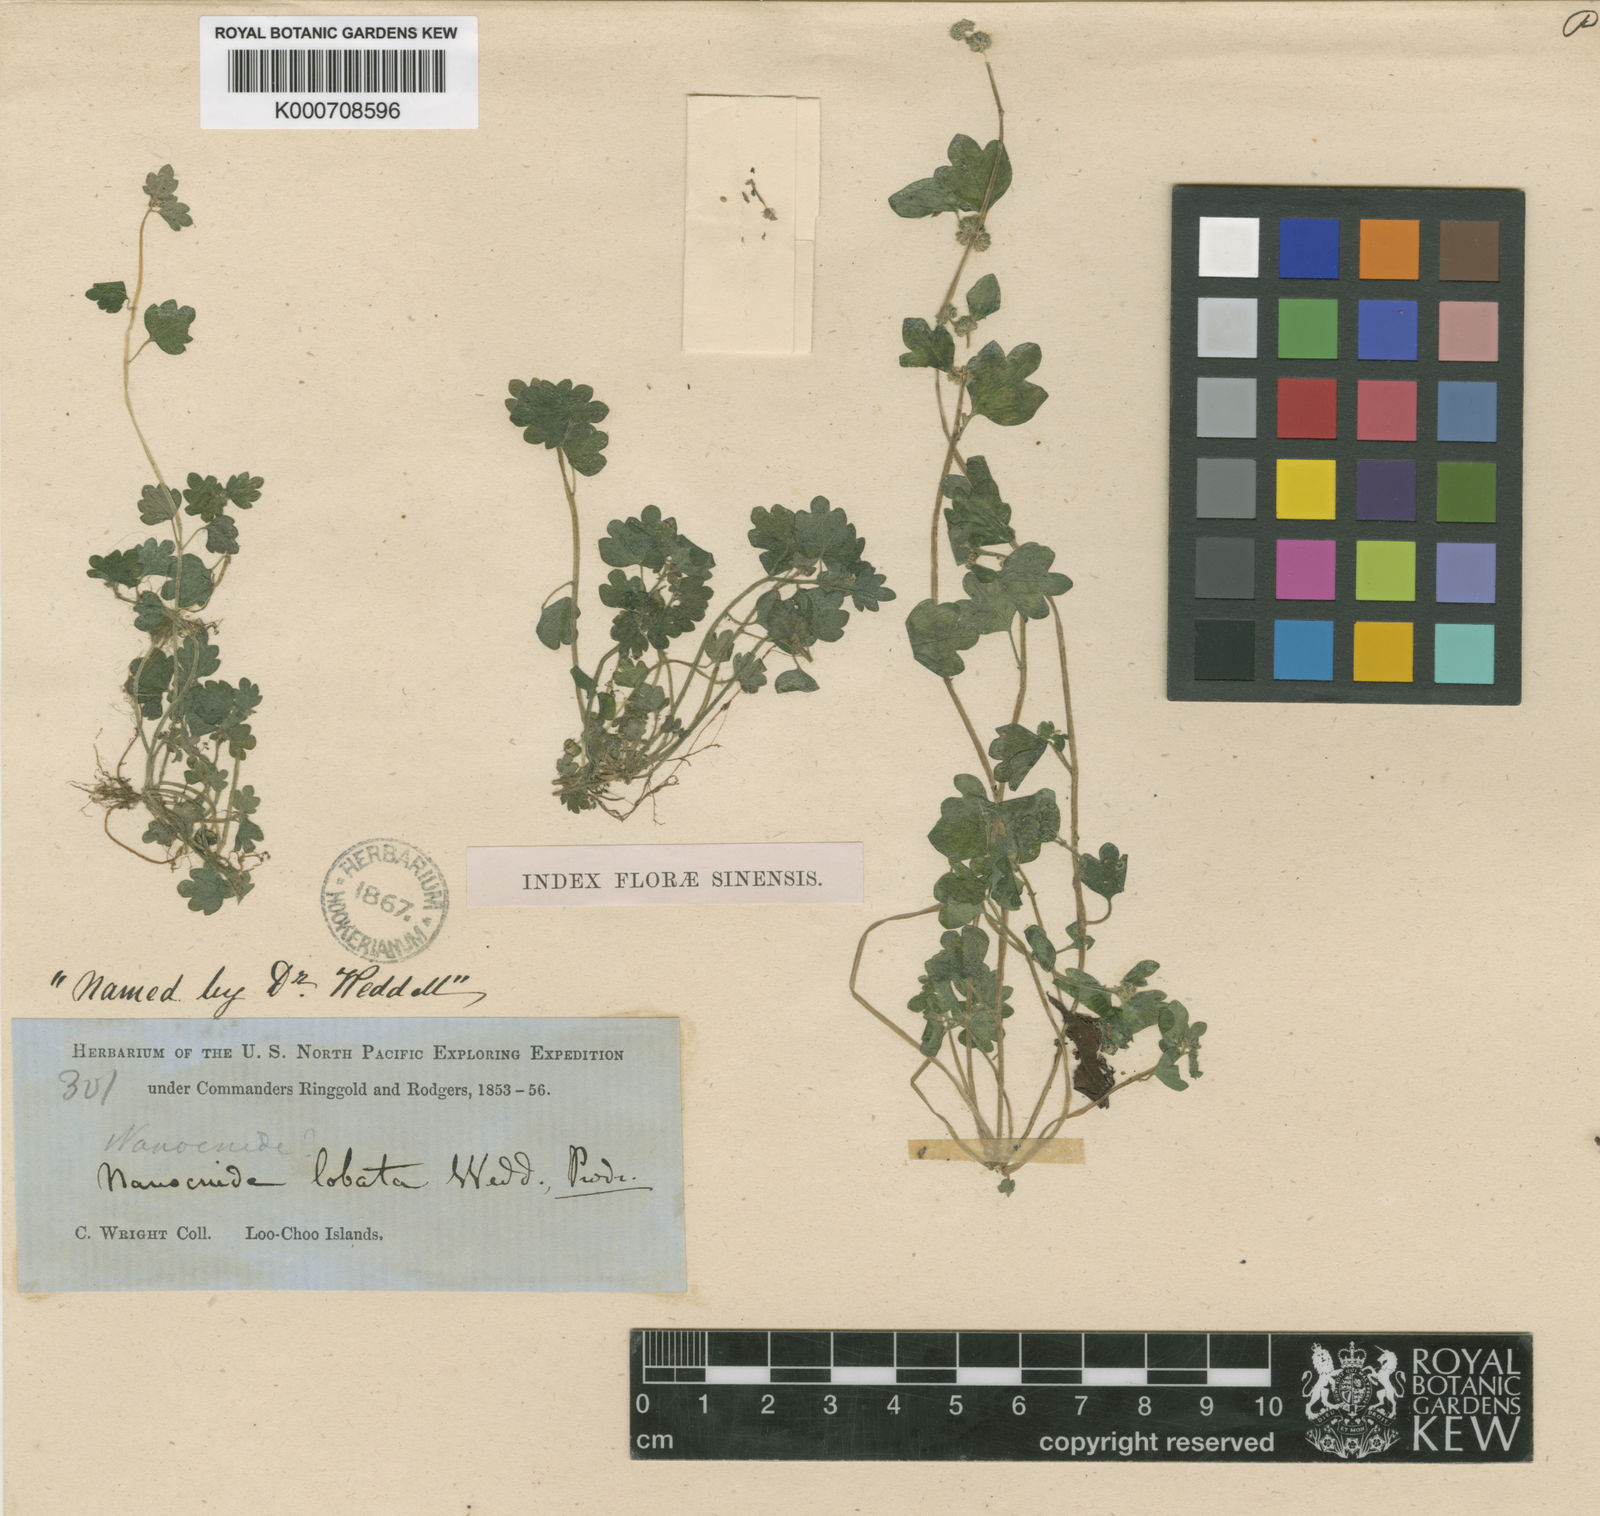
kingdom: Plantae
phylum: Tracheophyta
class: Magnoliopsida
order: Rosales
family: Urticaceae
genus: Nanocnide
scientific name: Nanocnide lobata
